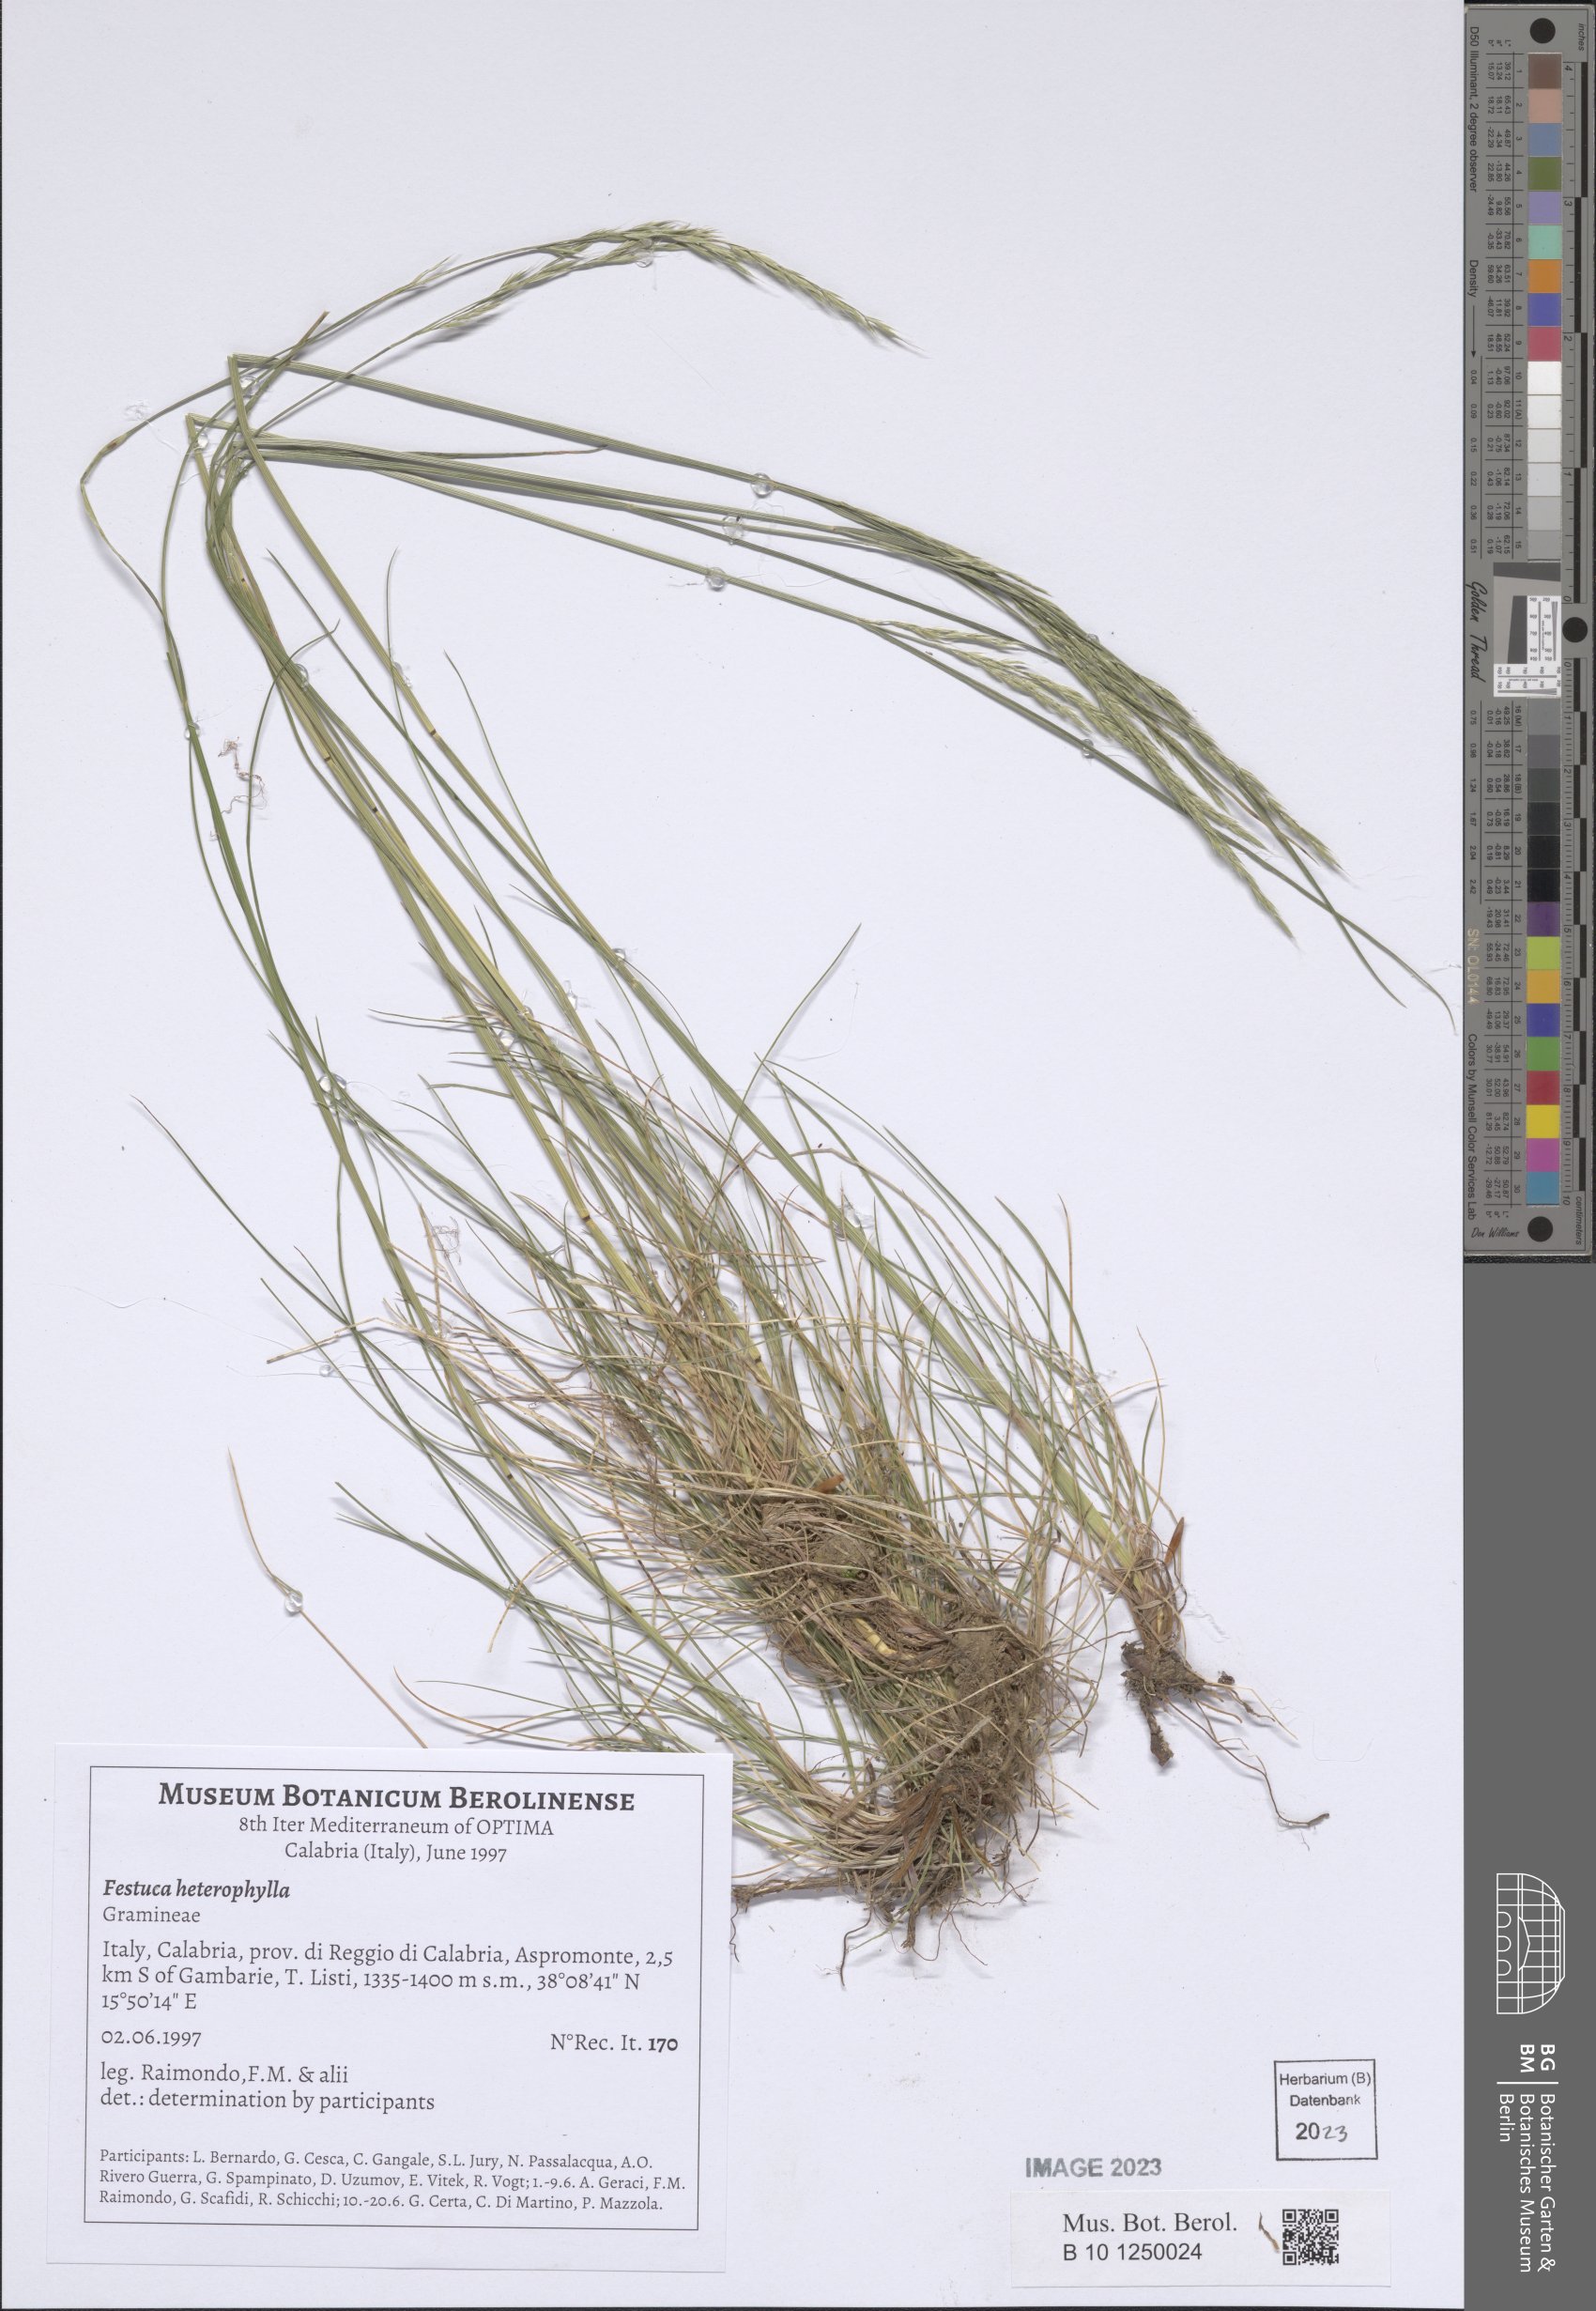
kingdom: Plantae
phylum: Tracheophyta
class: Liliopsida
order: Poales
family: Poaceae
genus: Festuca
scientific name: Festuca heterophylla
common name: Various-leaved fescue
